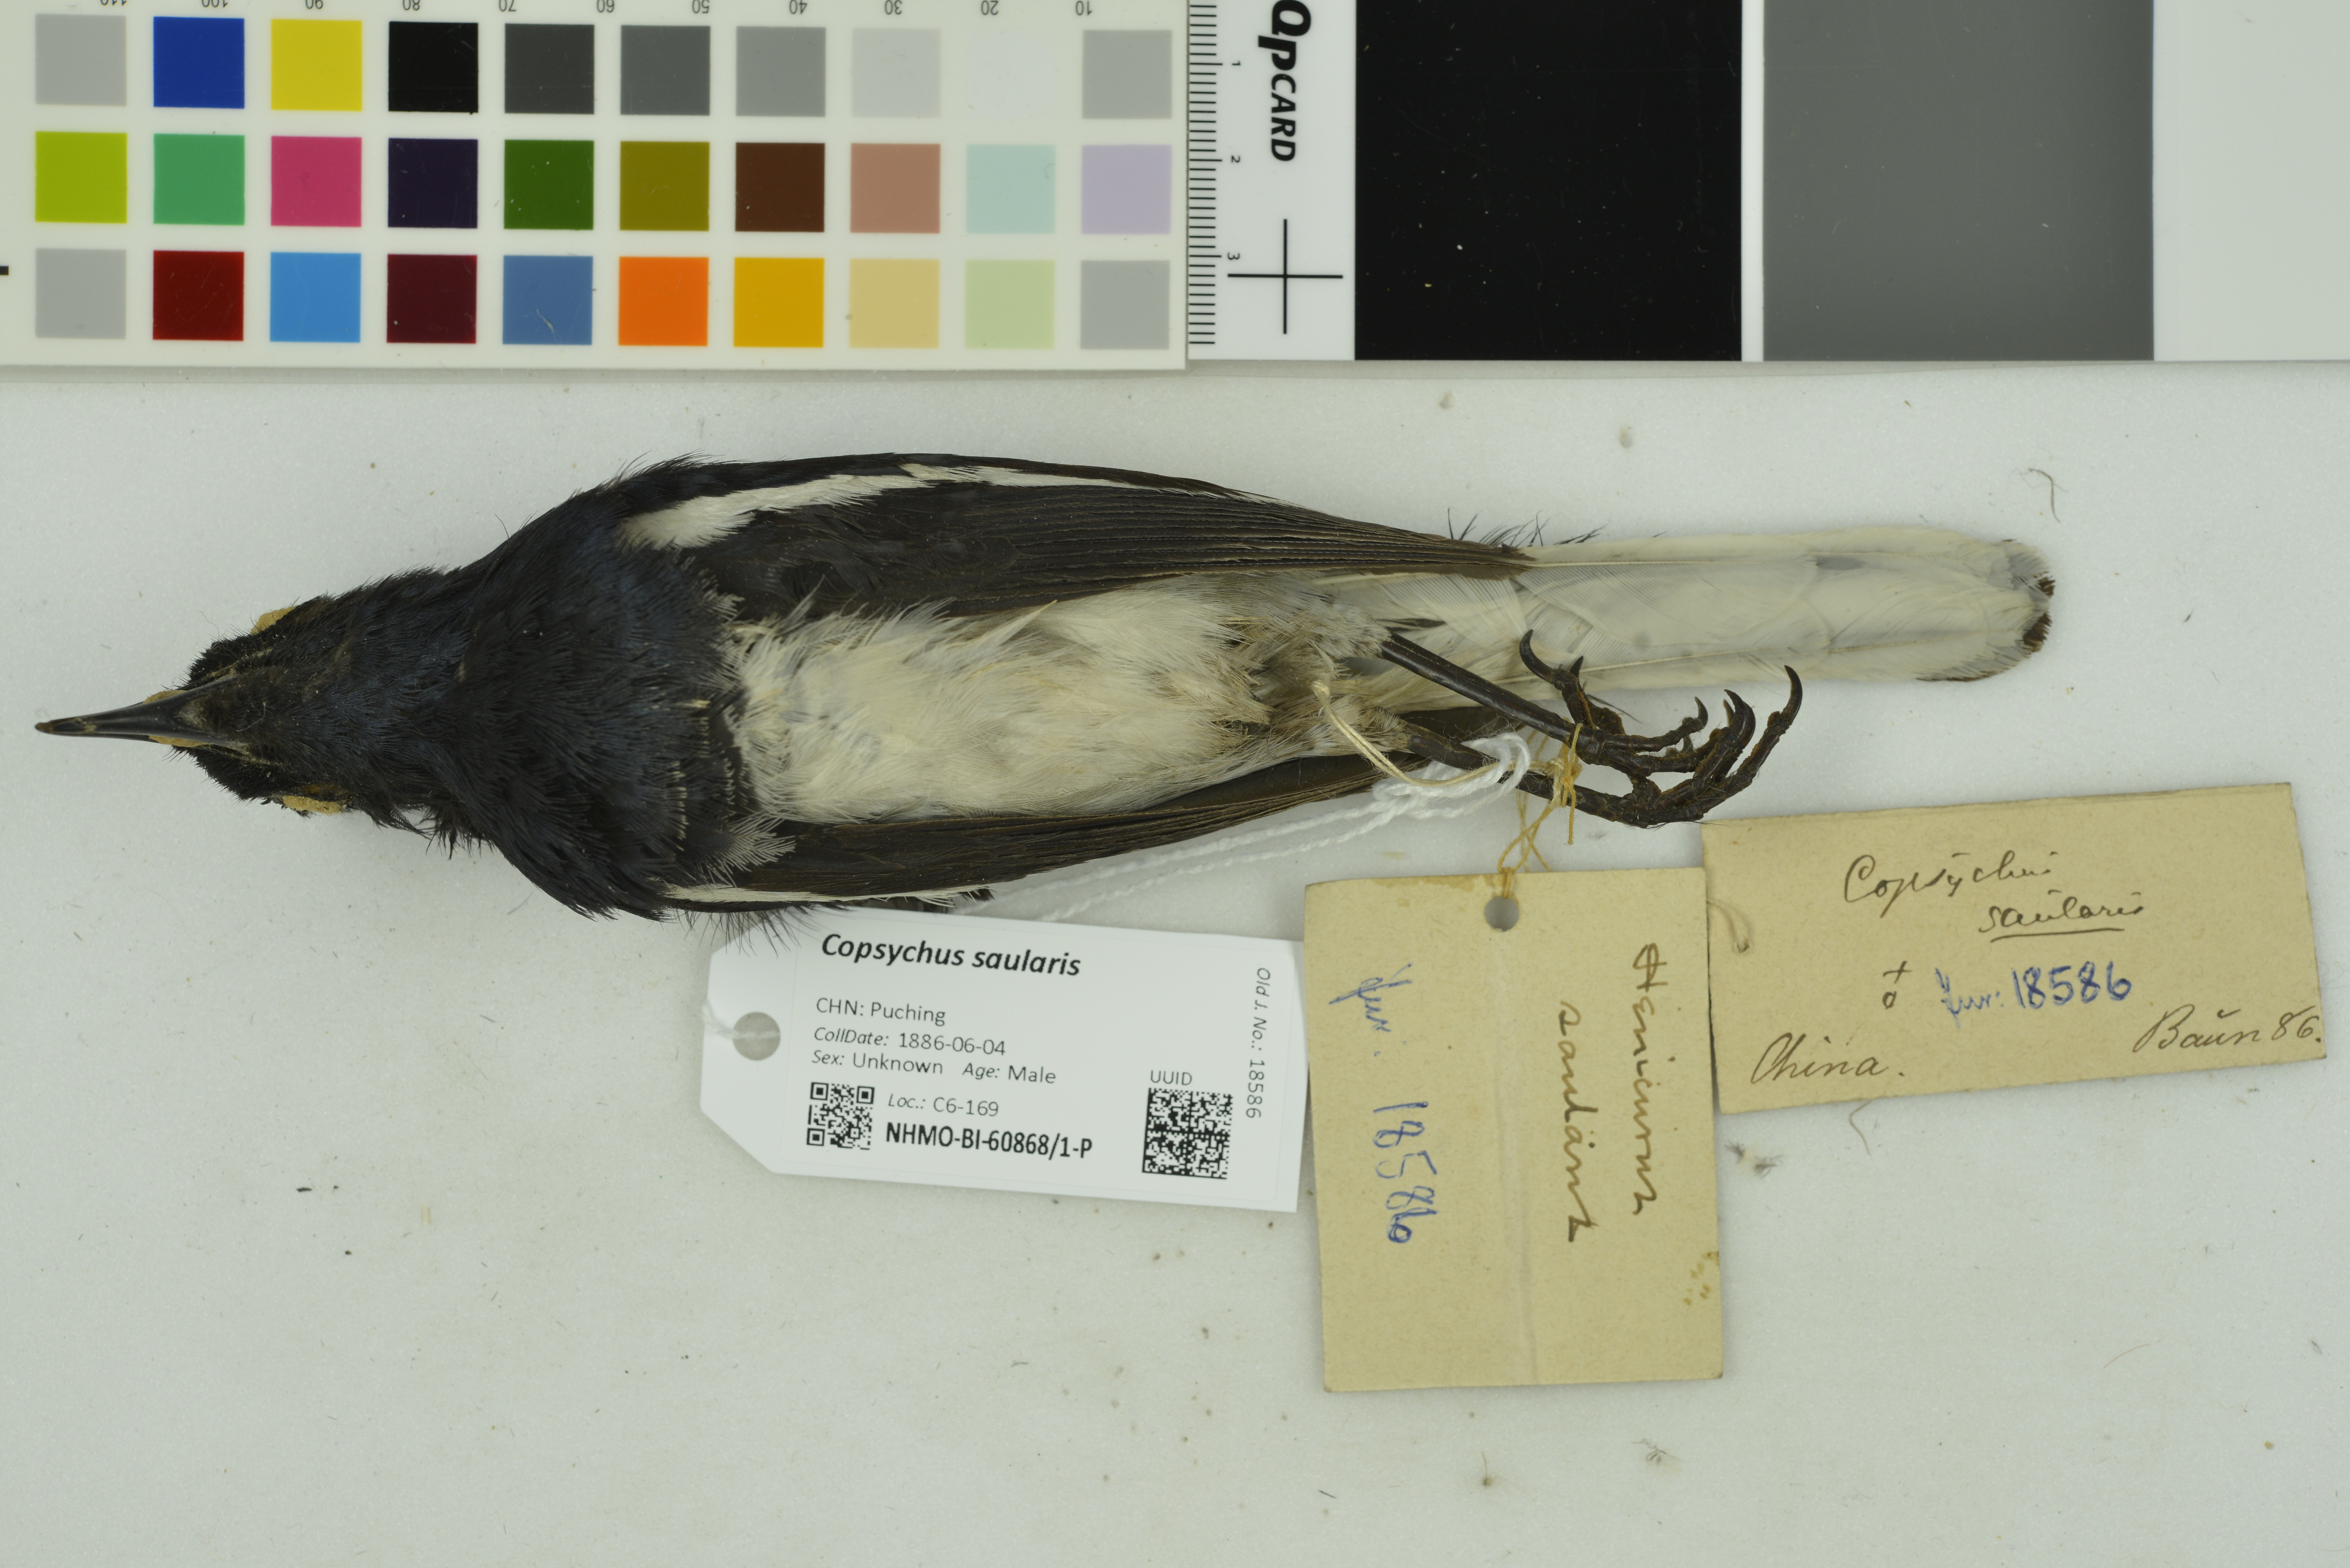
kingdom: Animalia
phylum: Chordata
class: Aves
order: Passeriformes
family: Muscicapidae
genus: Copsychus
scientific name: Copsychus saularis
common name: Oriental magpie-robin
